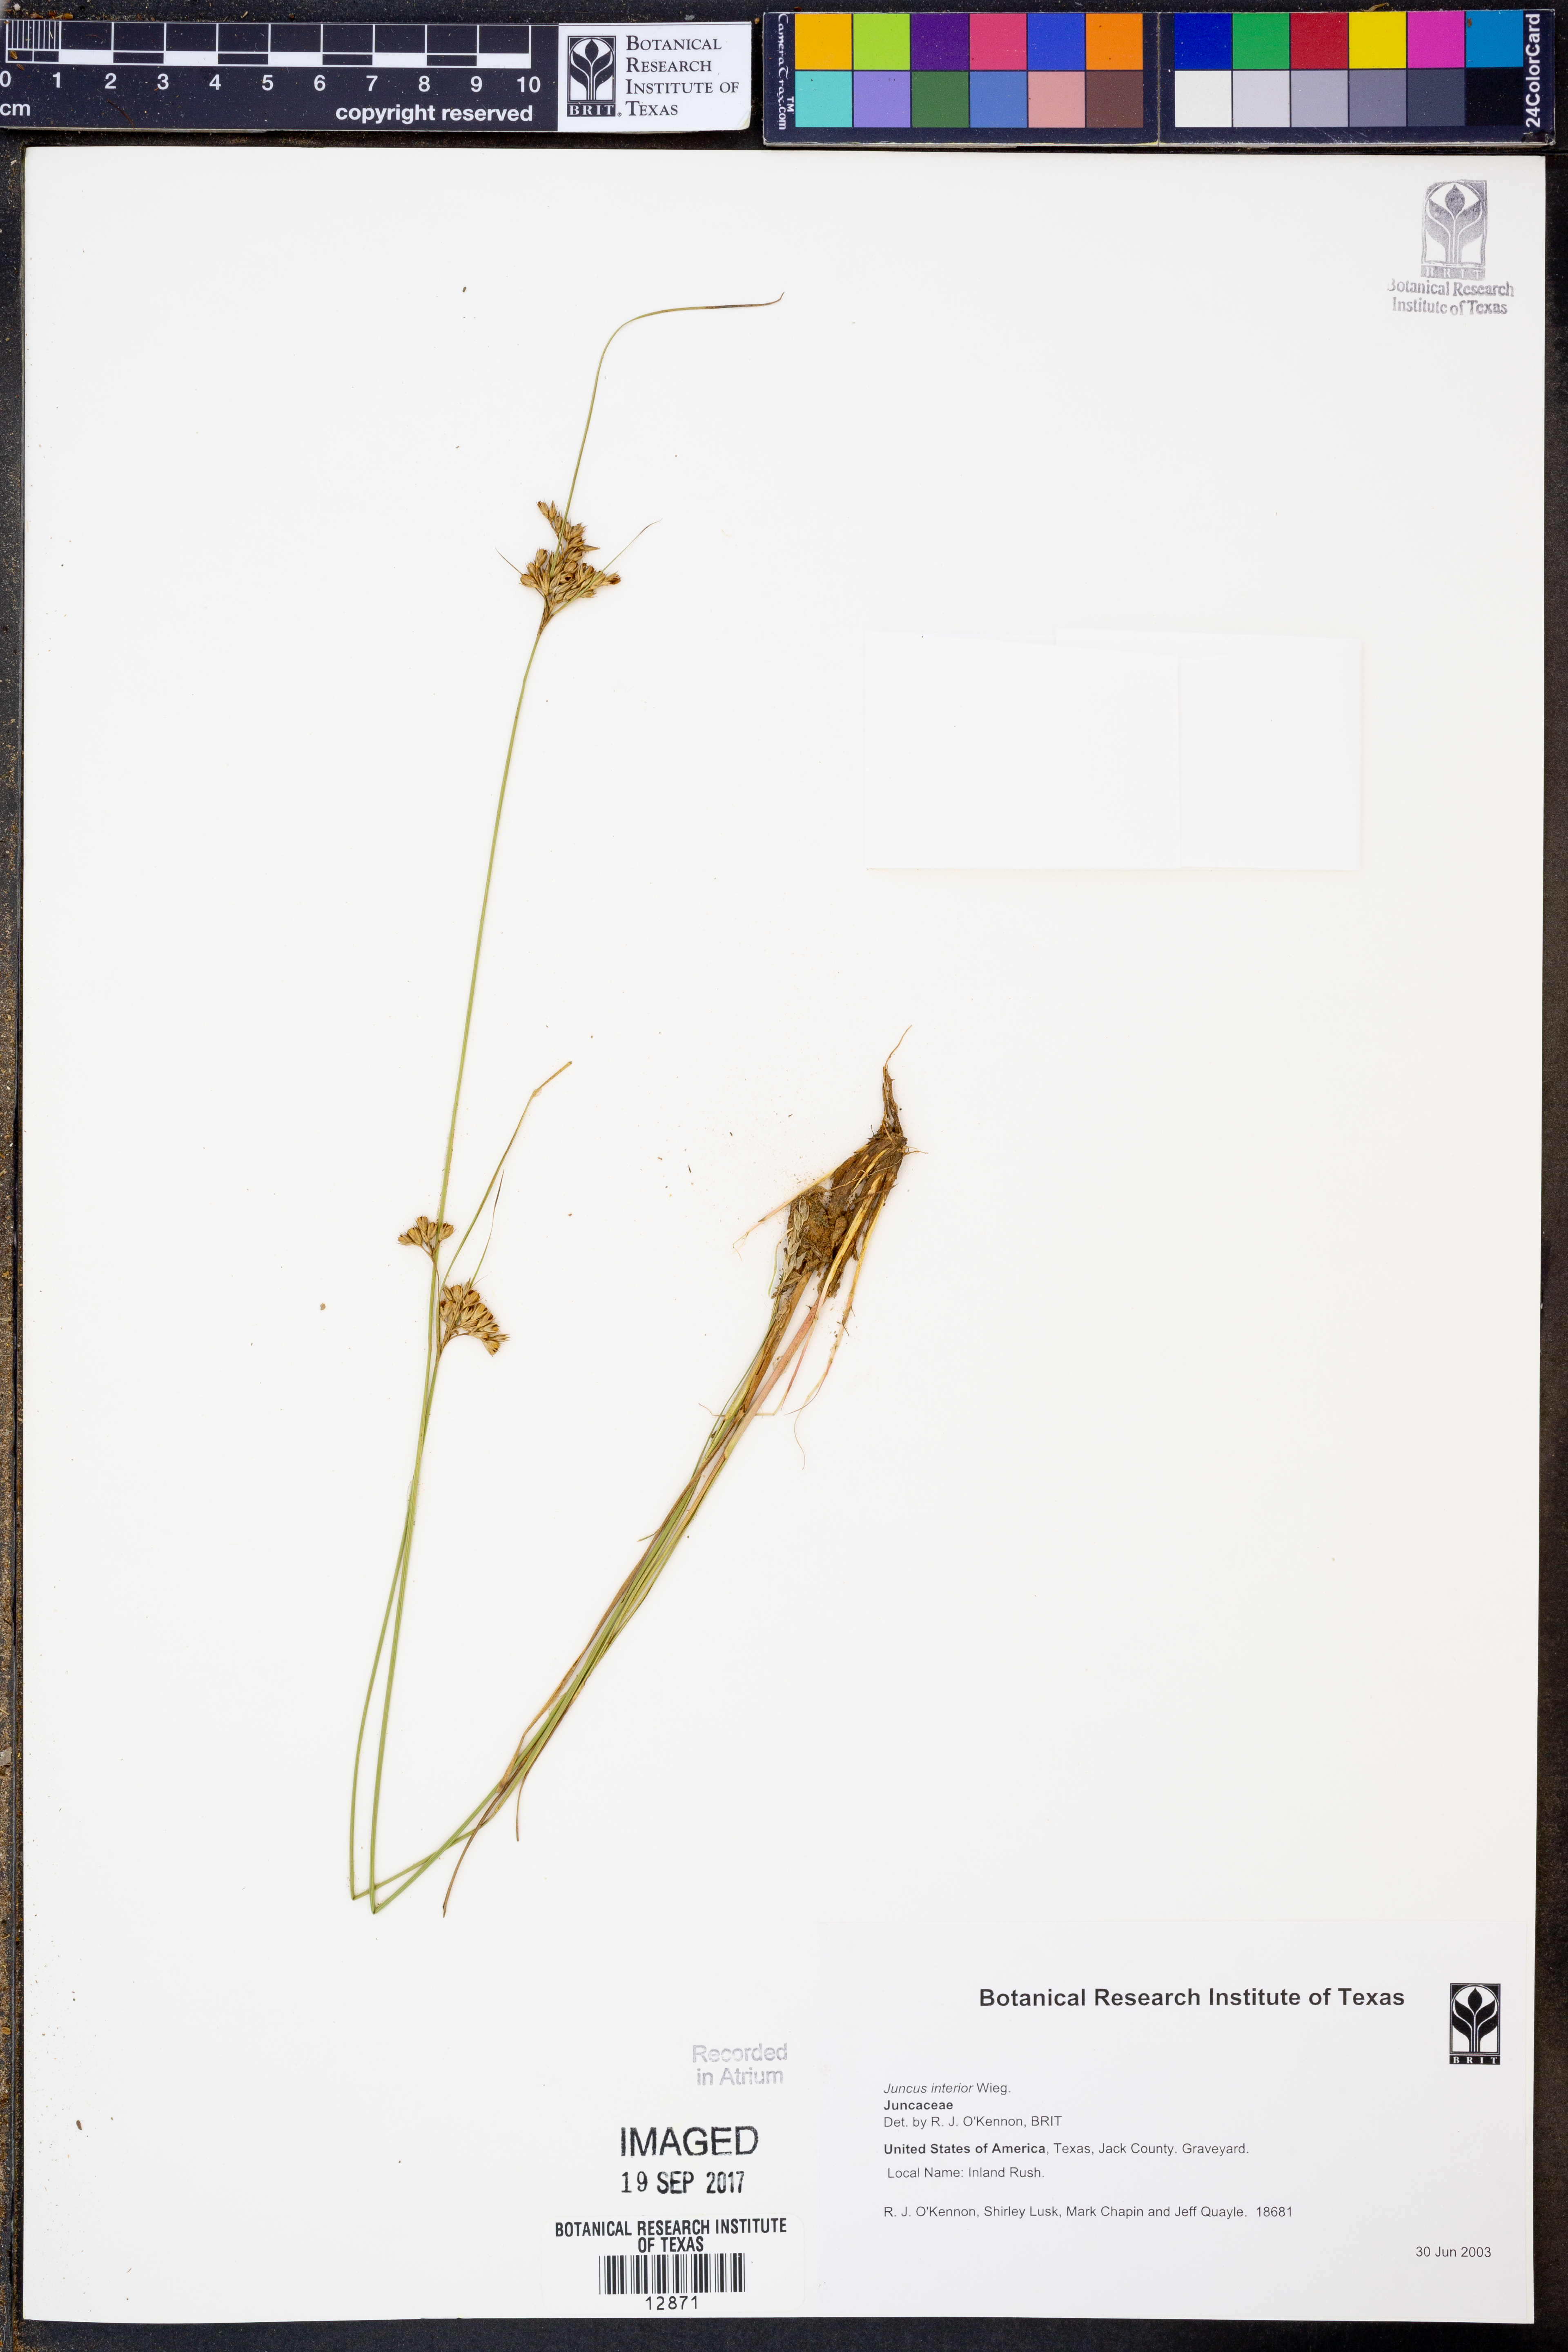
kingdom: Plantae
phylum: Tracheophyta
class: Liliopsida
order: Poales
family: Juncaceae
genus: Juncus
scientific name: Juncus interior
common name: Interior rush
